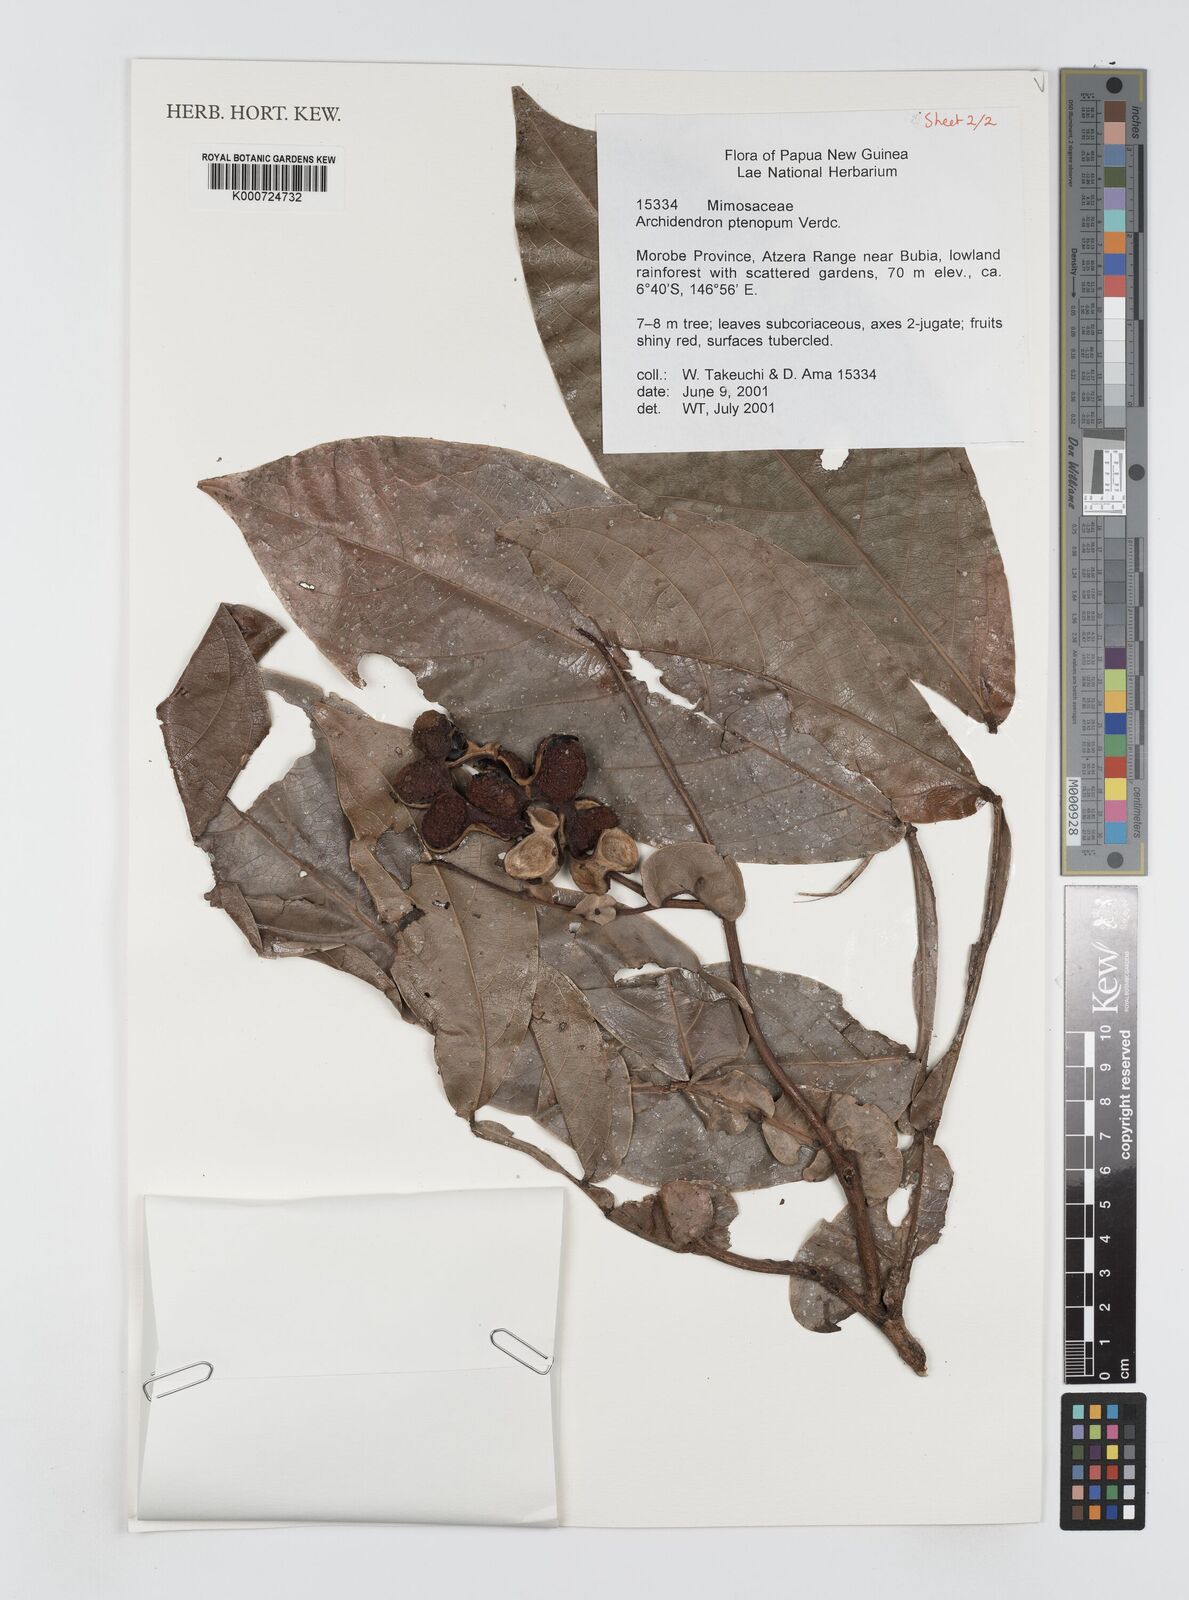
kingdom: Plantae
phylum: Tracheophyta
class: Magnoliopsida
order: Fabales
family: Fabaceae
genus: Archidendron
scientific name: Archidendron ptenopum
